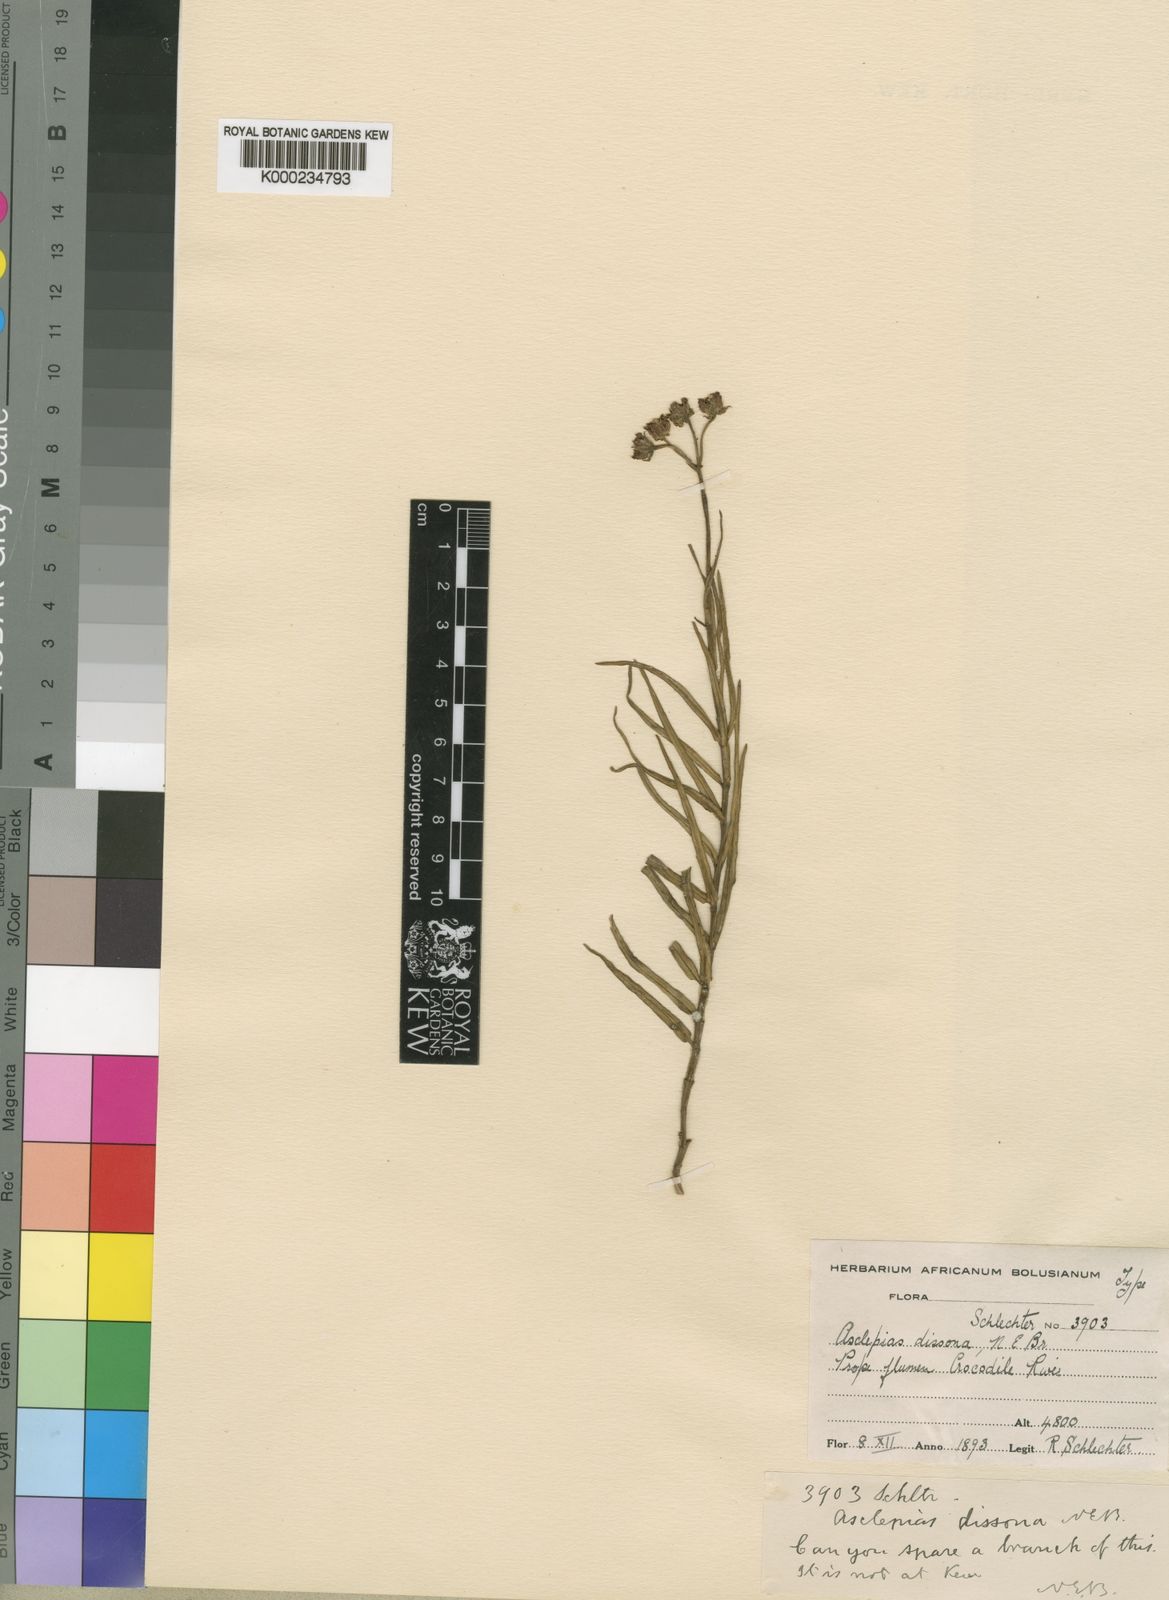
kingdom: Plantae
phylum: Tracheophyta
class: Magnoliopsida
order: Gentianales
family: Apocynaceae
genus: Asclepias
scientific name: Asclepias dissona
